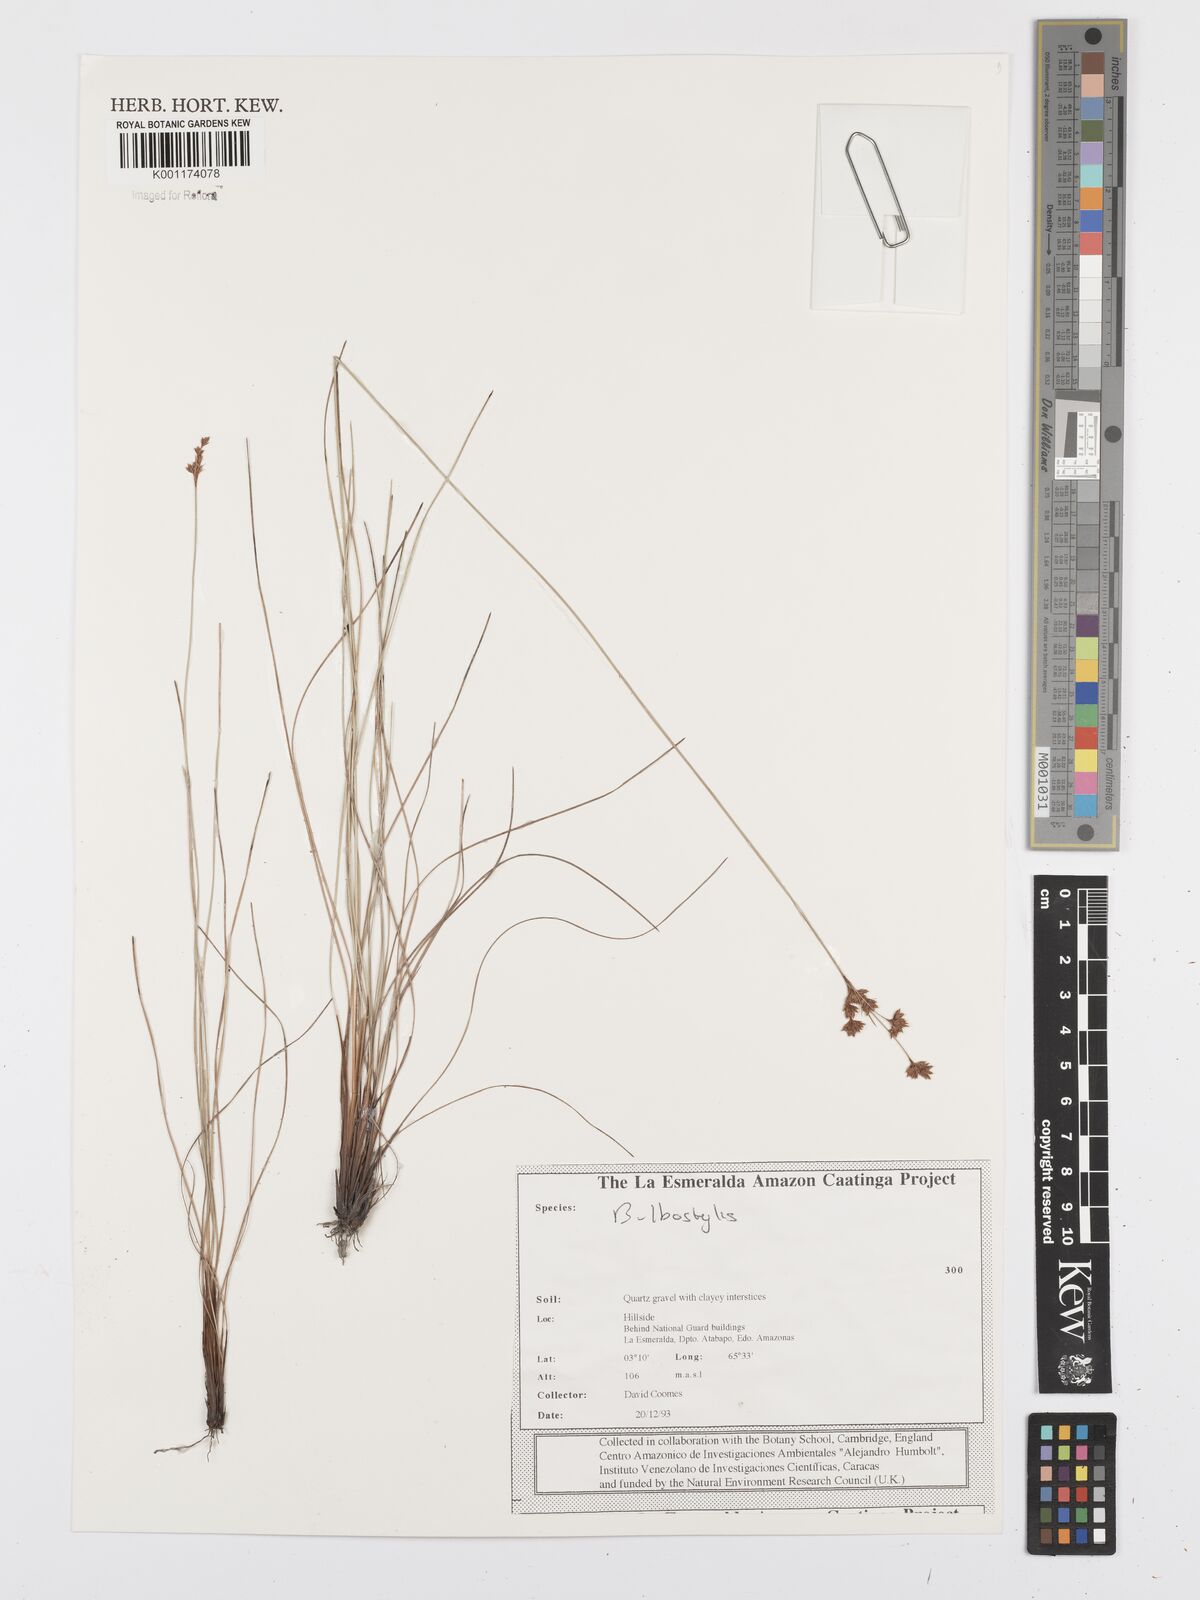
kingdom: Plantae
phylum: Tracheophyta
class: Liliopsida
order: Poales
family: Cyperaceae
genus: Bulbostylis
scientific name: Bulbostylis
